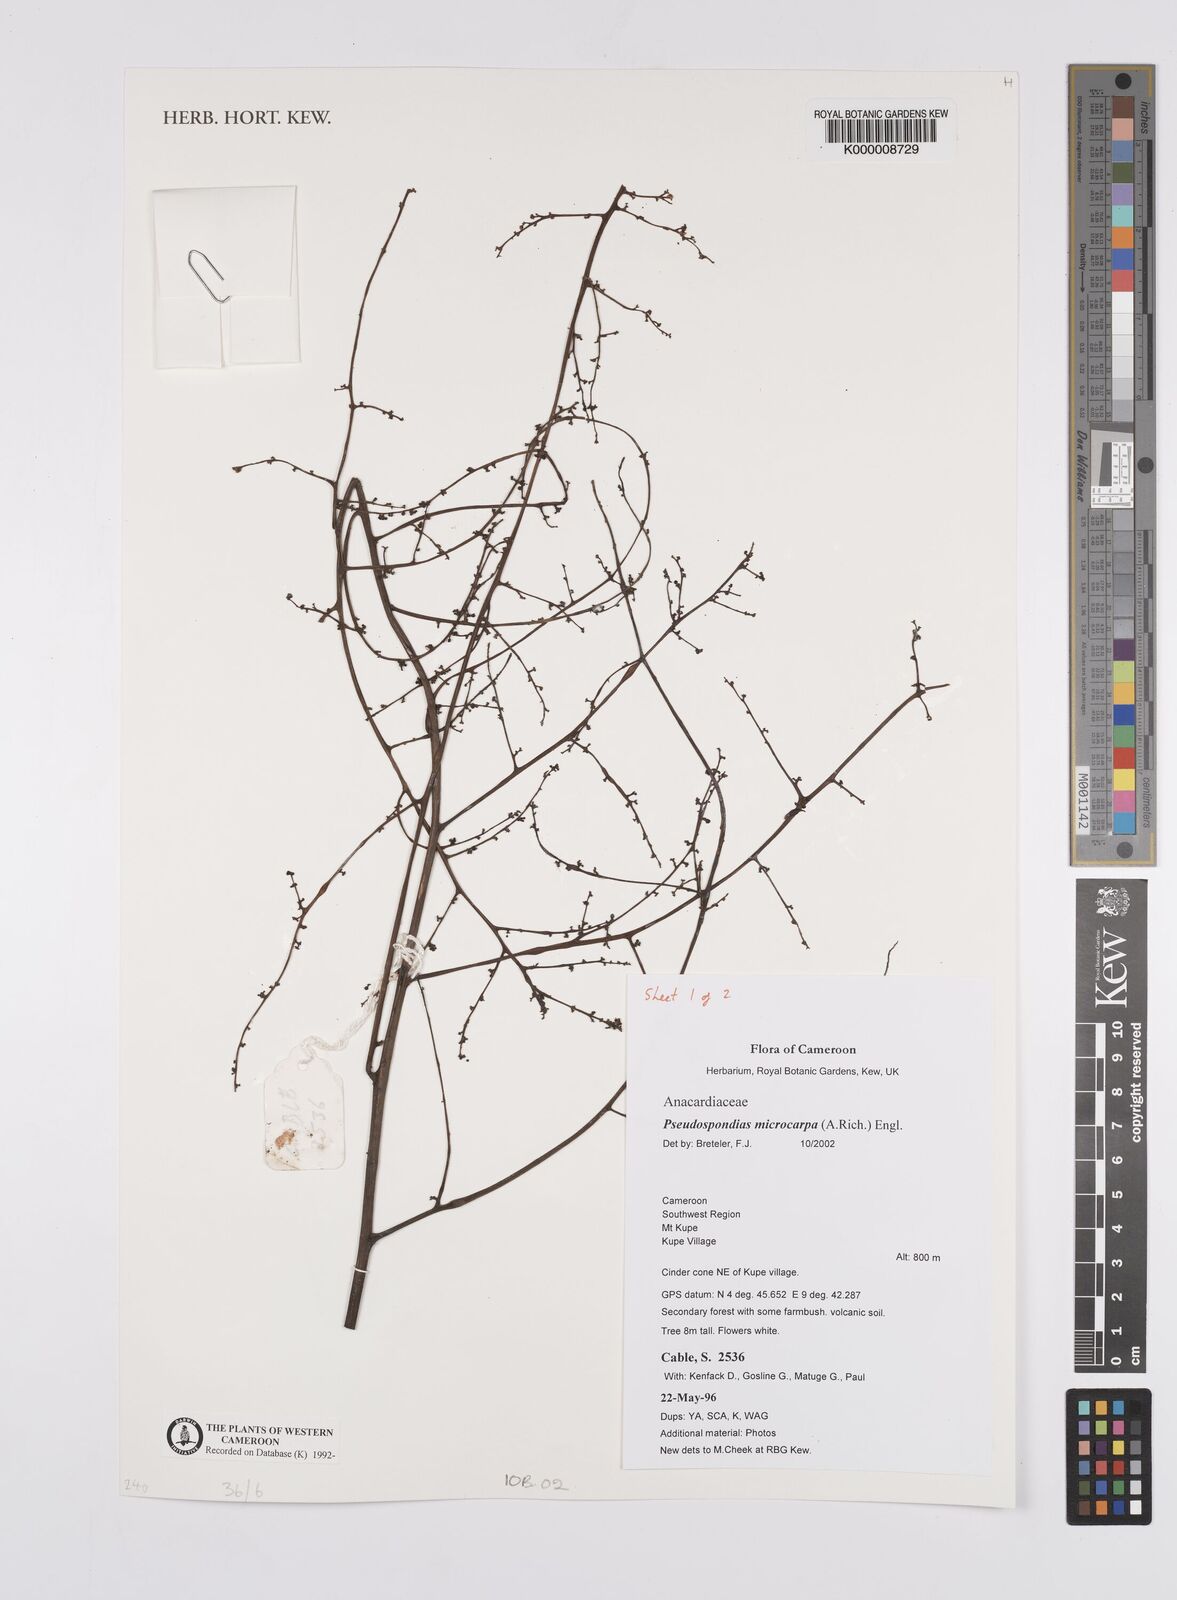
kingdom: Plantae
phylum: Tracheophyta
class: Magnoliopsida
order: Sapindales
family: Anacardiaceae
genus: Pseudospondias
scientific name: Pseudospondias microcarpa
